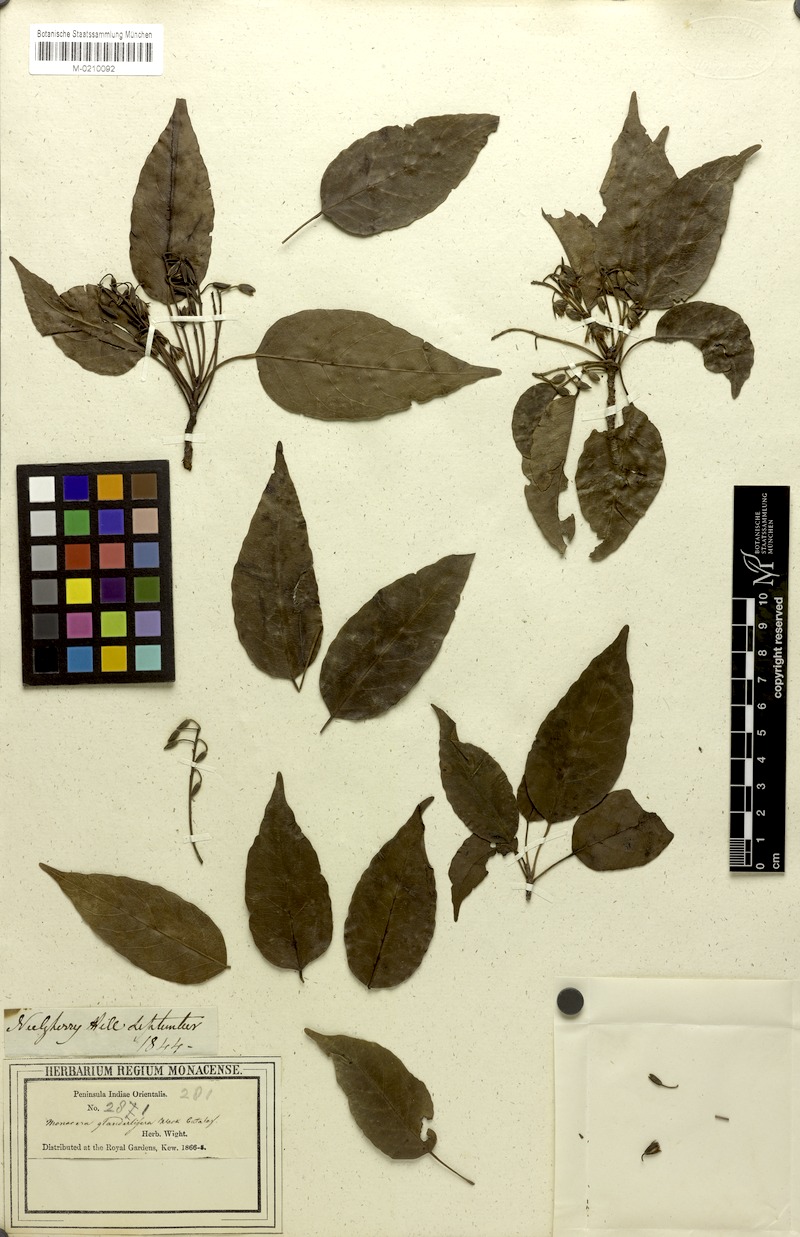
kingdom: Plantae
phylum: Tracheophyta
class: Magnoliopsida
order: Oxalidales
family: Elaeocarpaceae
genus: Elaeocarpus
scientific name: Elaeocarpus glandulifer
